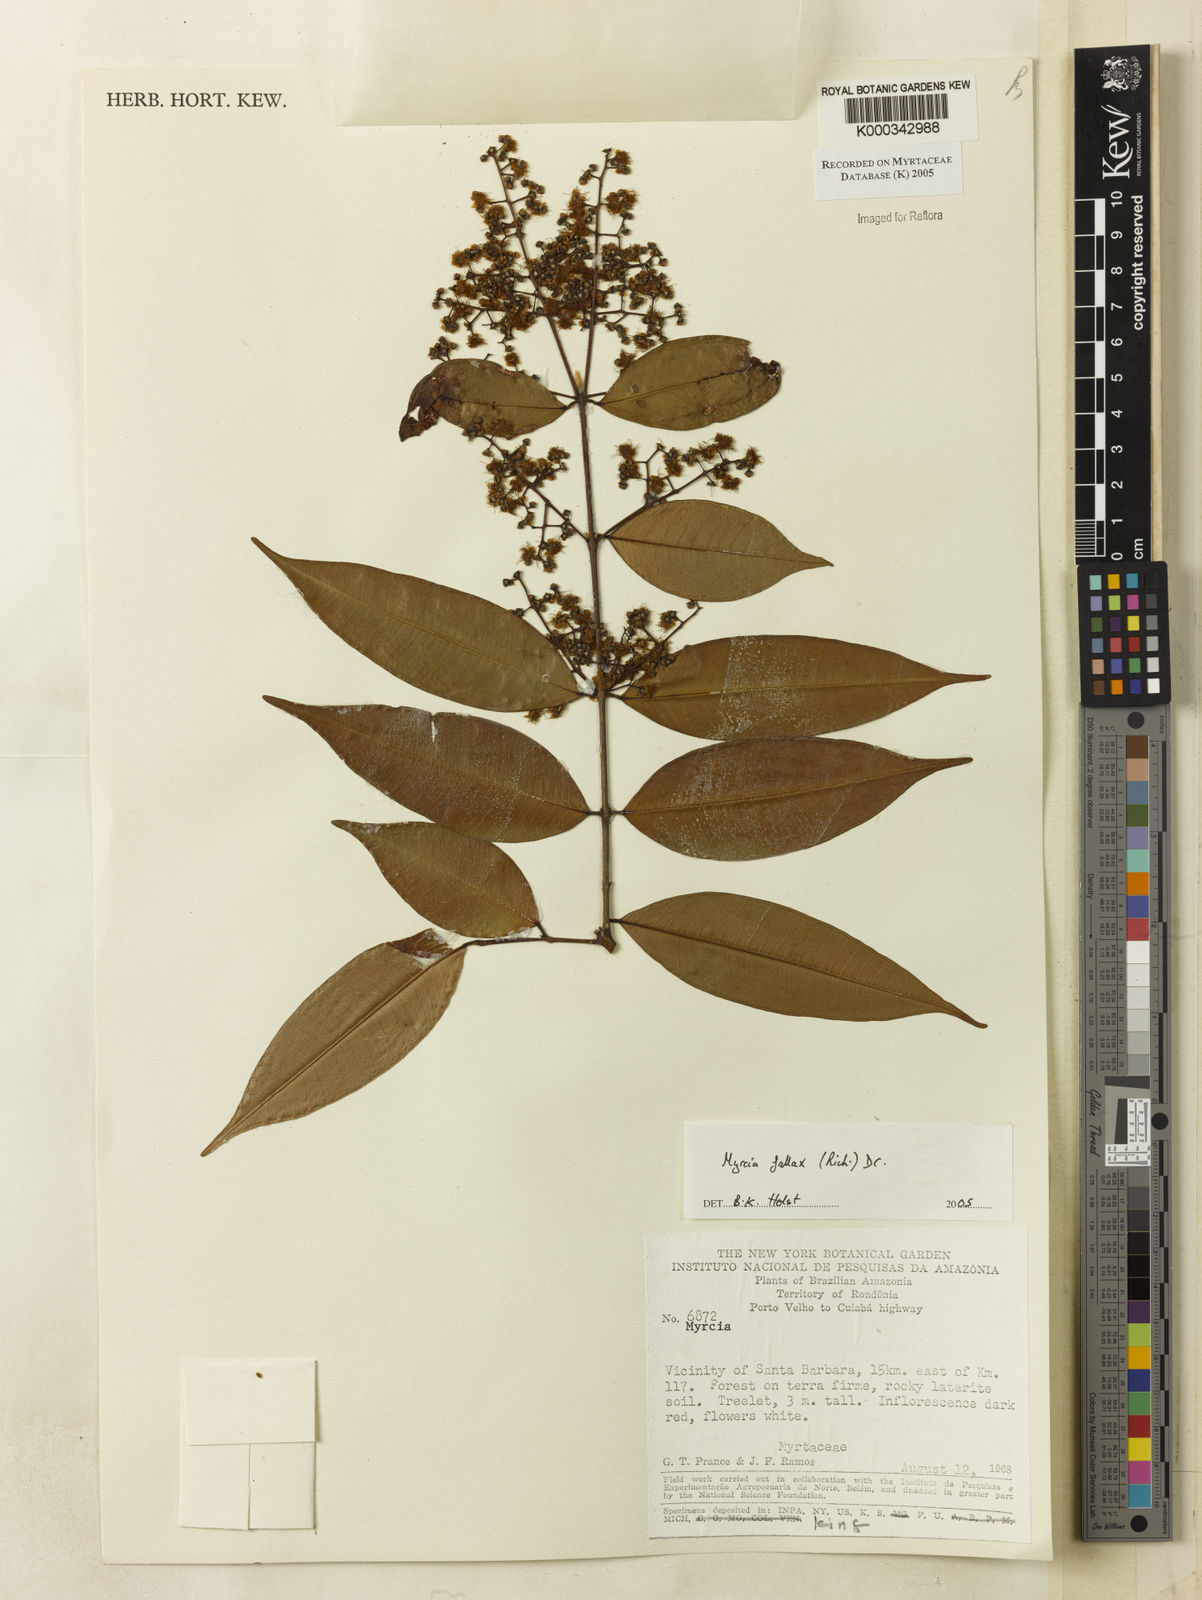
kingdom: Plantae
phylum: Tracheophyta
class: Magnoliopsida
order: Myrtales
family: Myrtaceae
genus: Myrcia
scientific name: Myrcia splendens
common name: Surinam cherry
